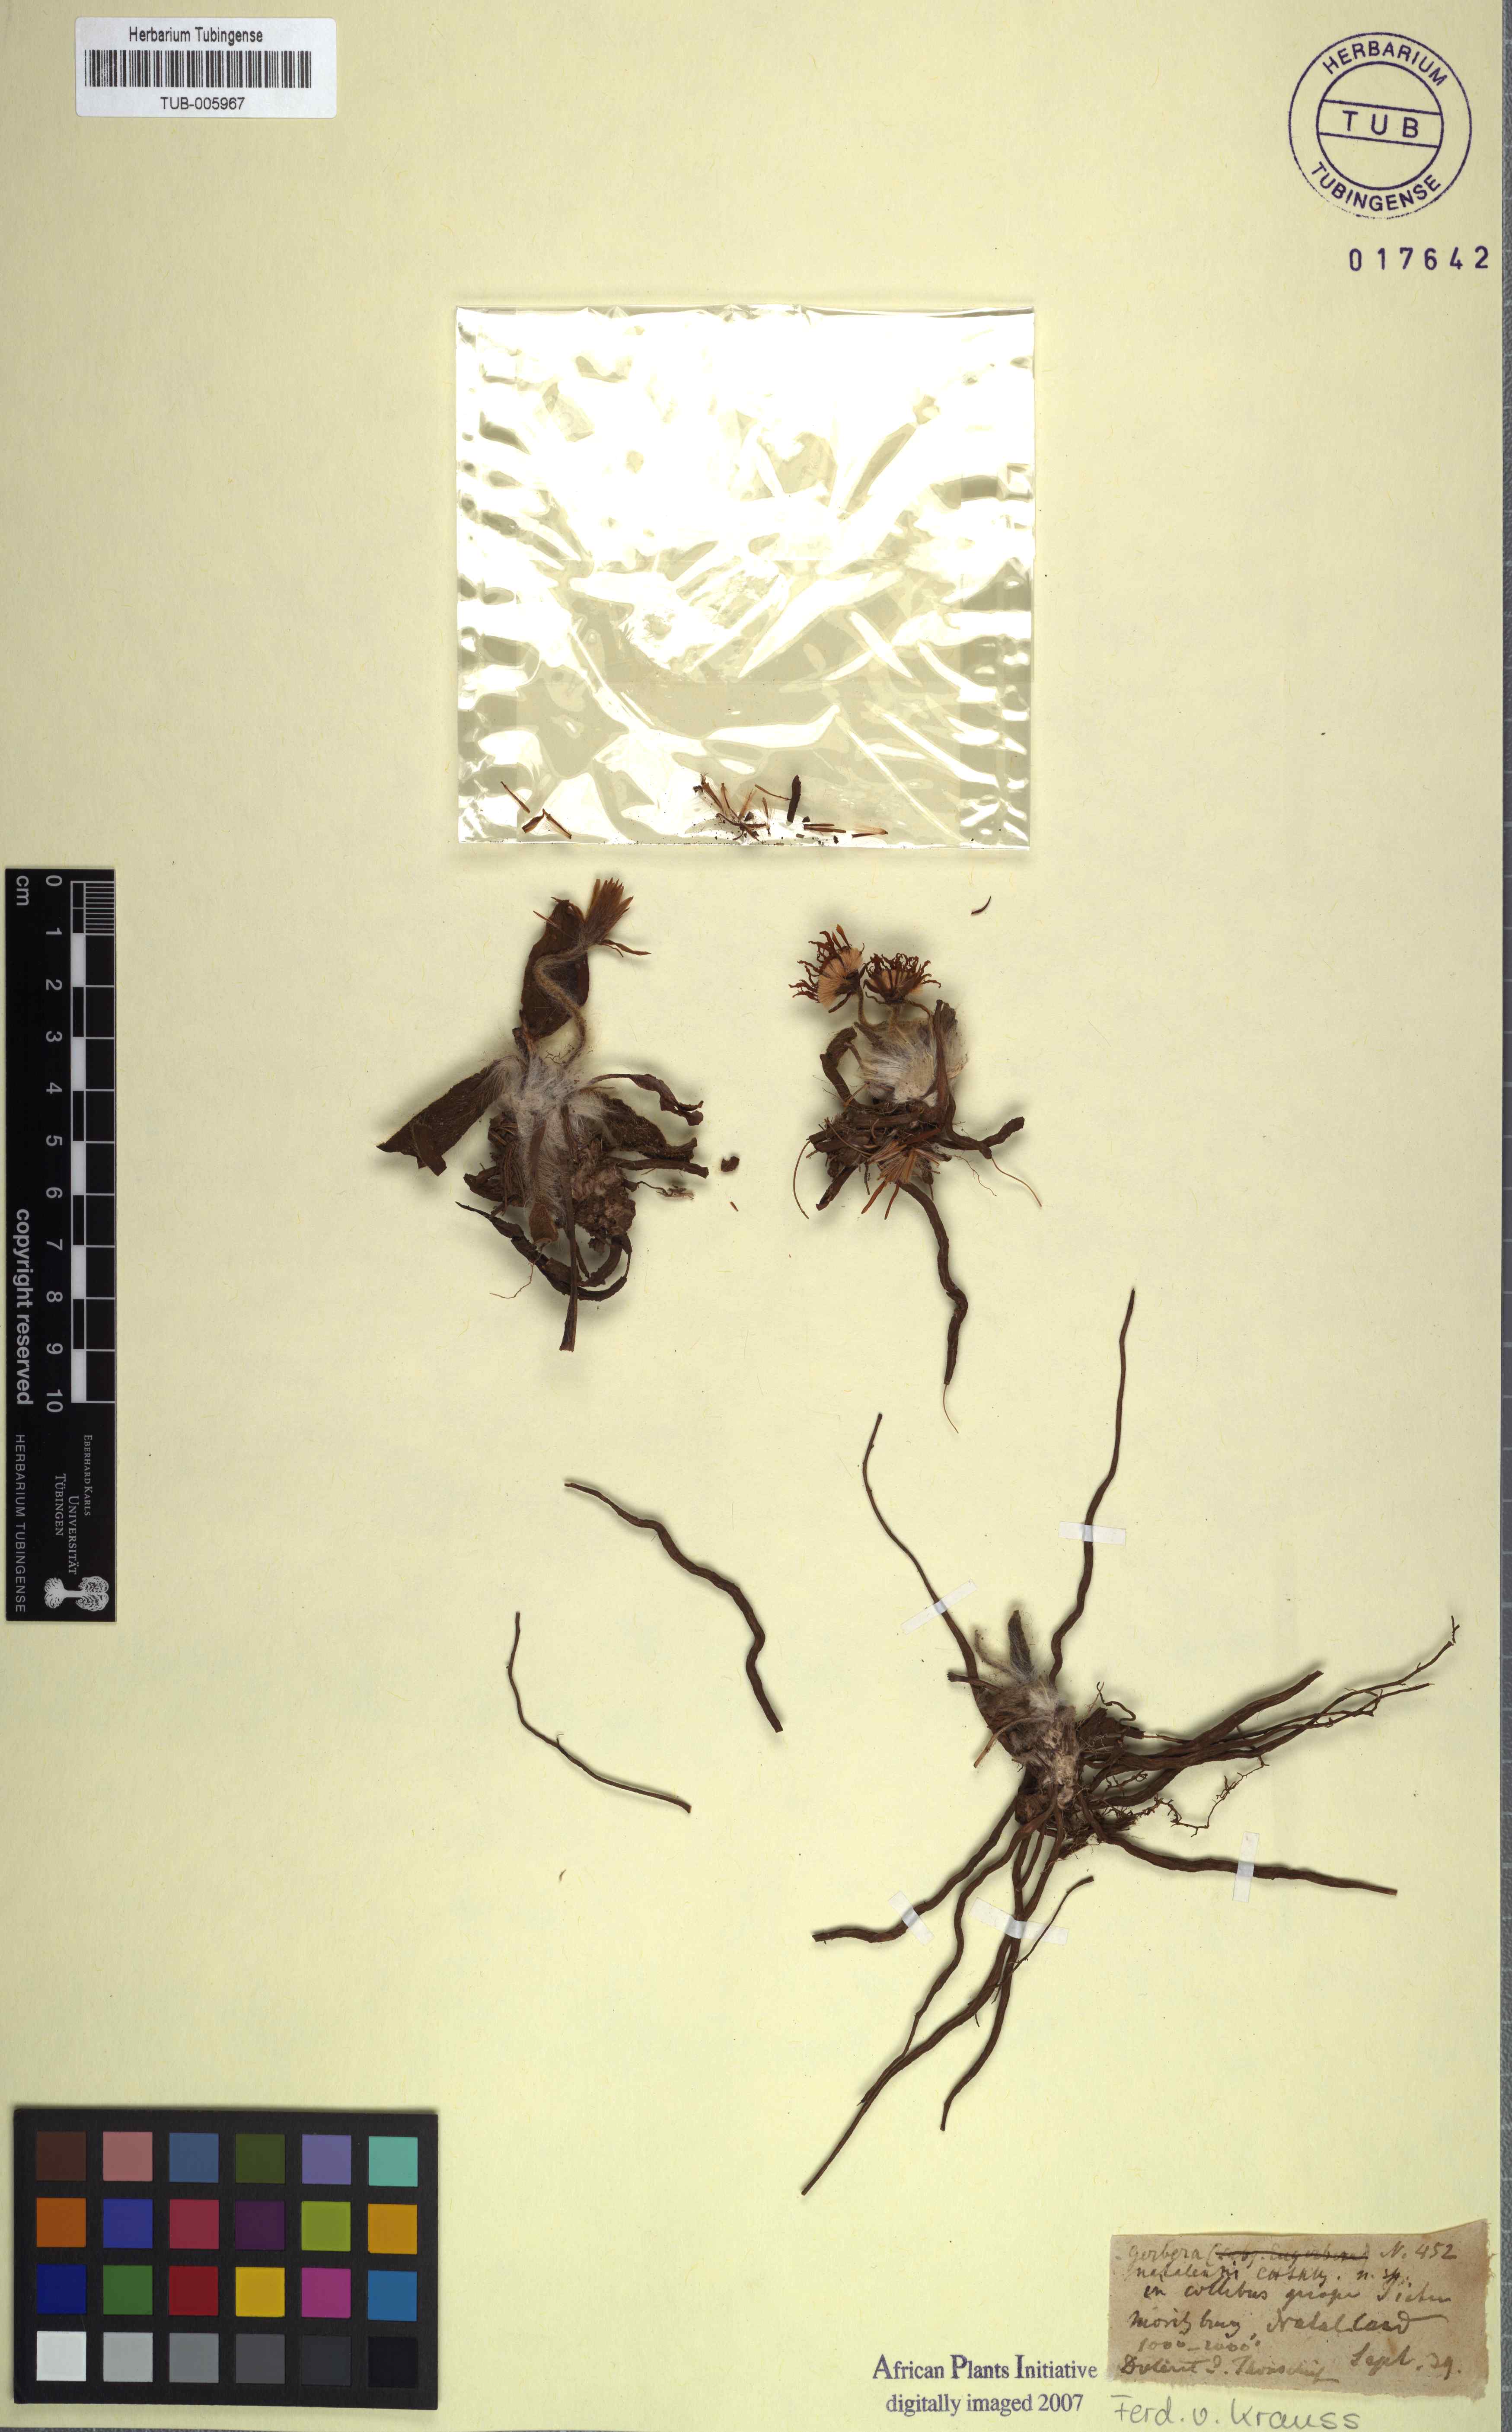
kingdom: Plantae
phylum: Tracheophyta
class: Magnoliopsida
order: Asterales
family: Asteraceae
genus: Gerbera
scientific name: Gerbera natalensis
